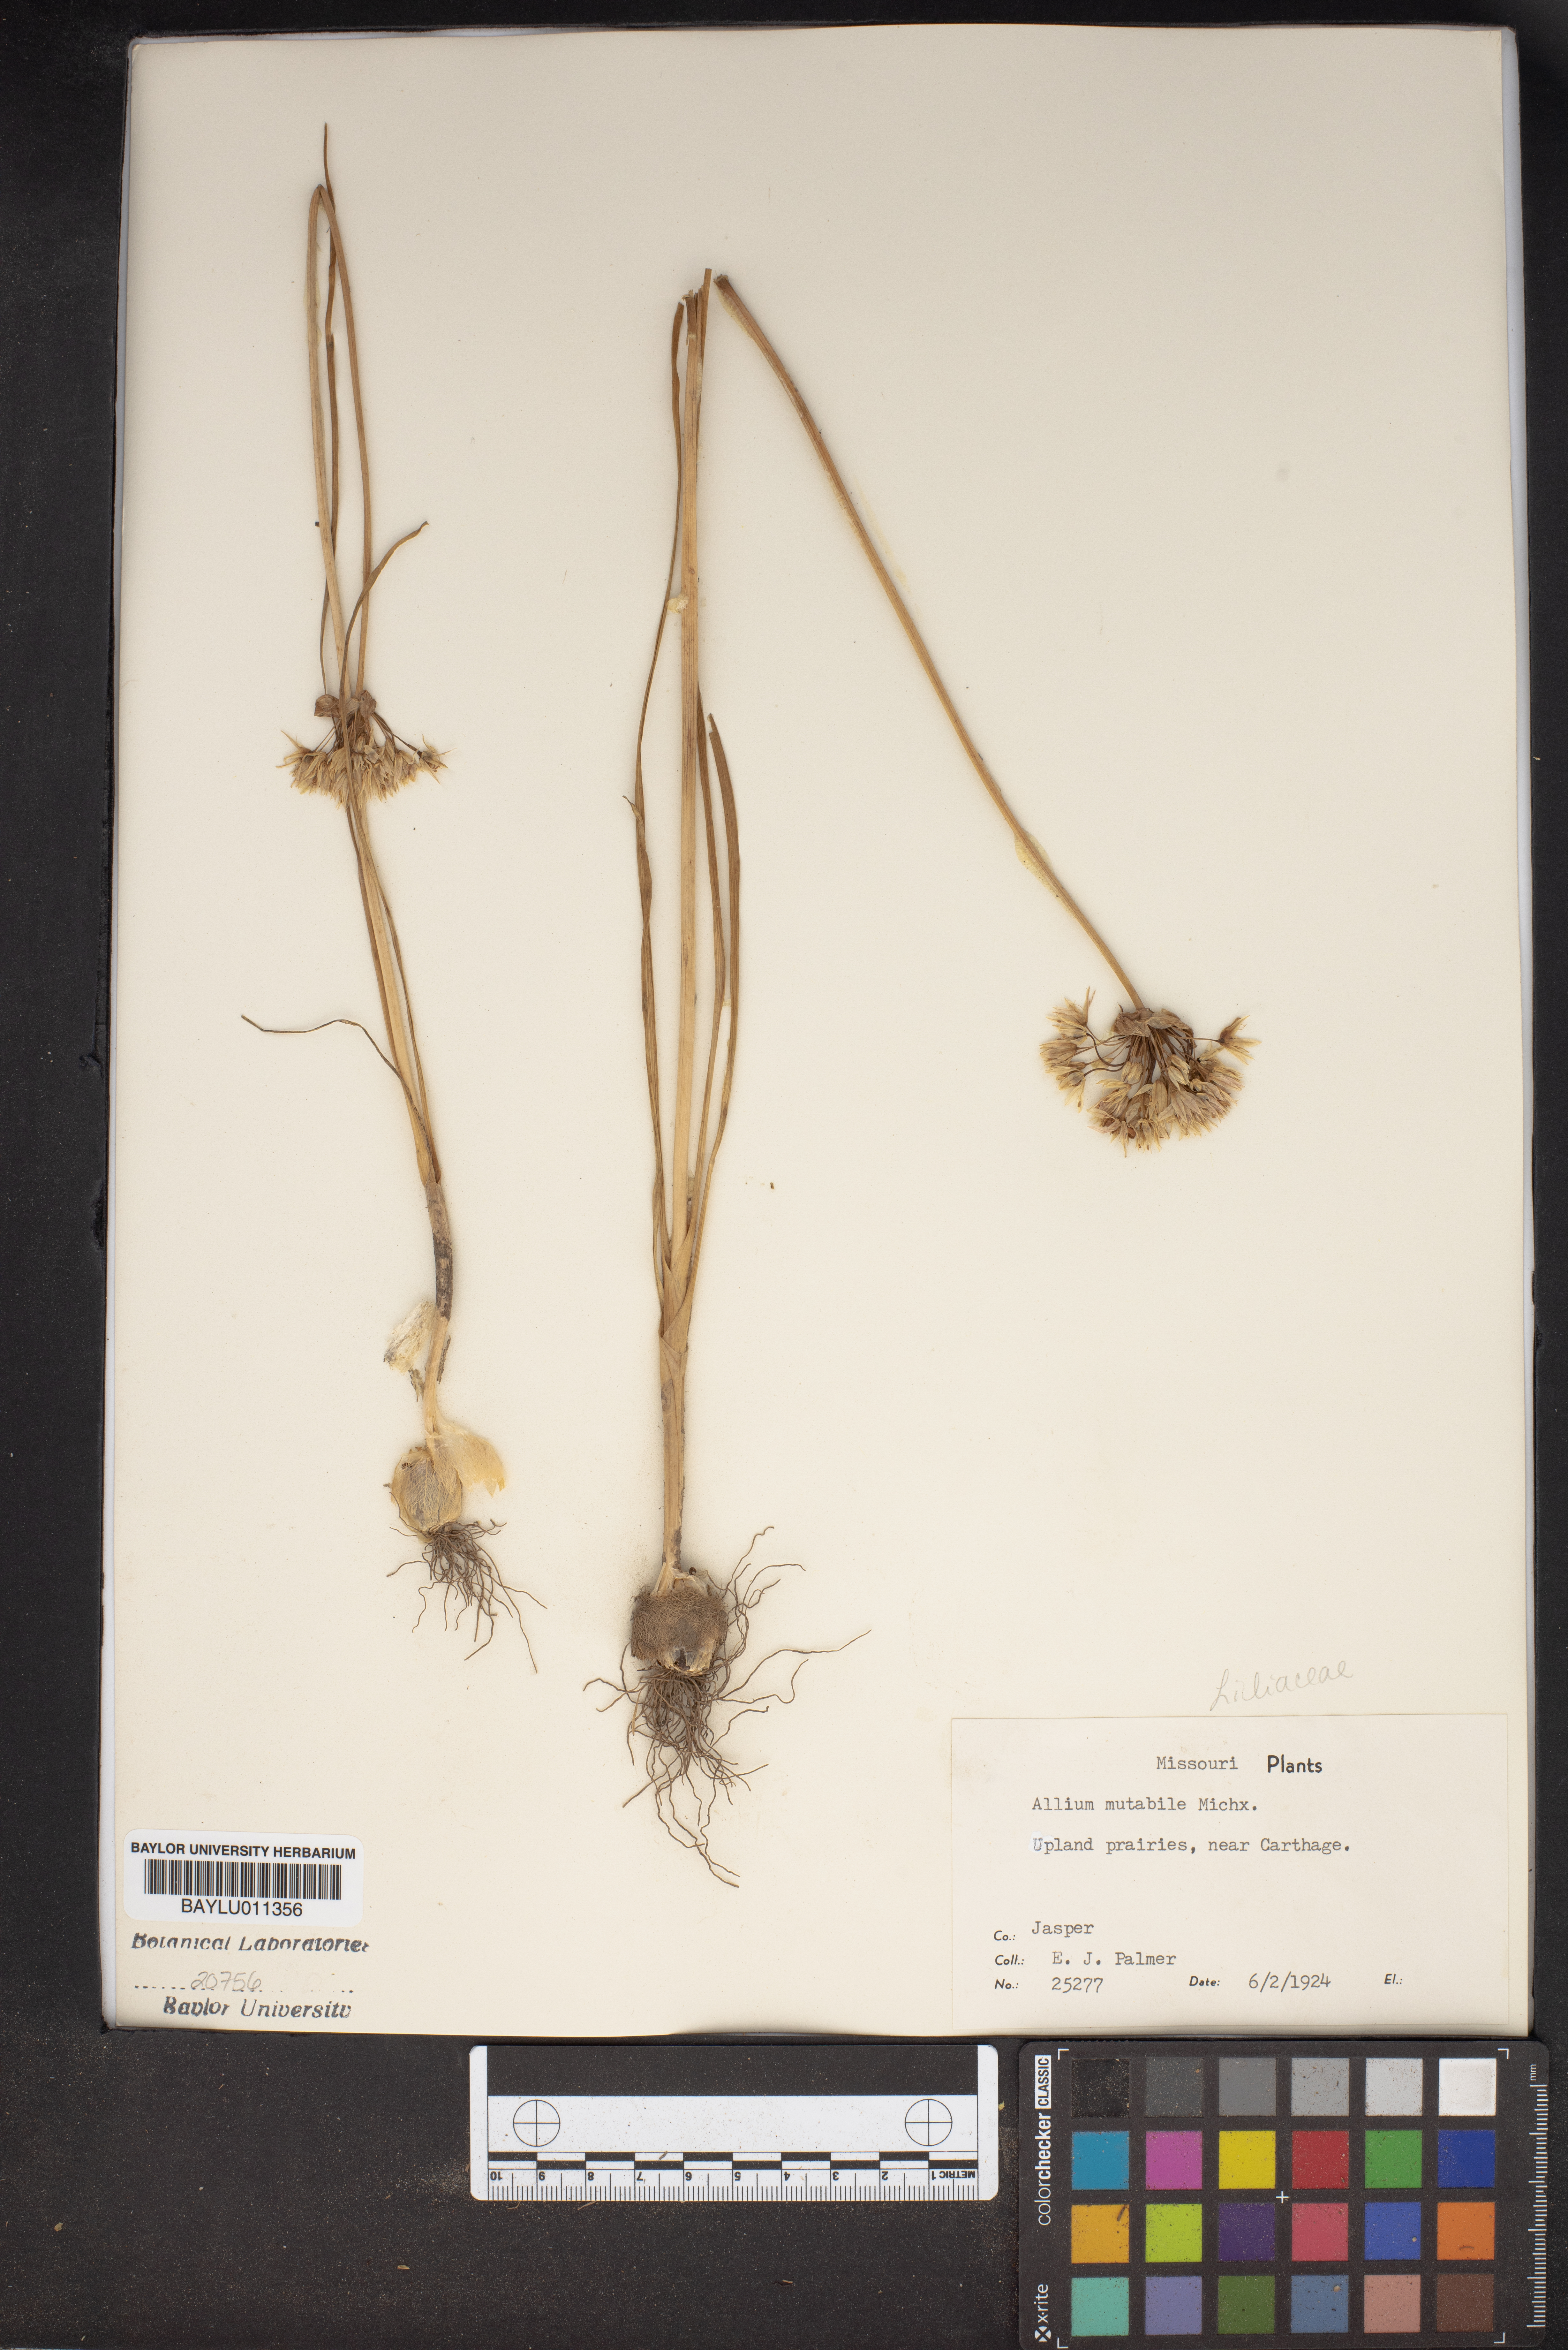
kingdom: Plantae
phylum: Tracheophyta
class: Liliopsida
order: Asparagales
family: Amaryllidaceae
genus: Allium
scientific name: Allium canadense
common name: Meadow garlic
